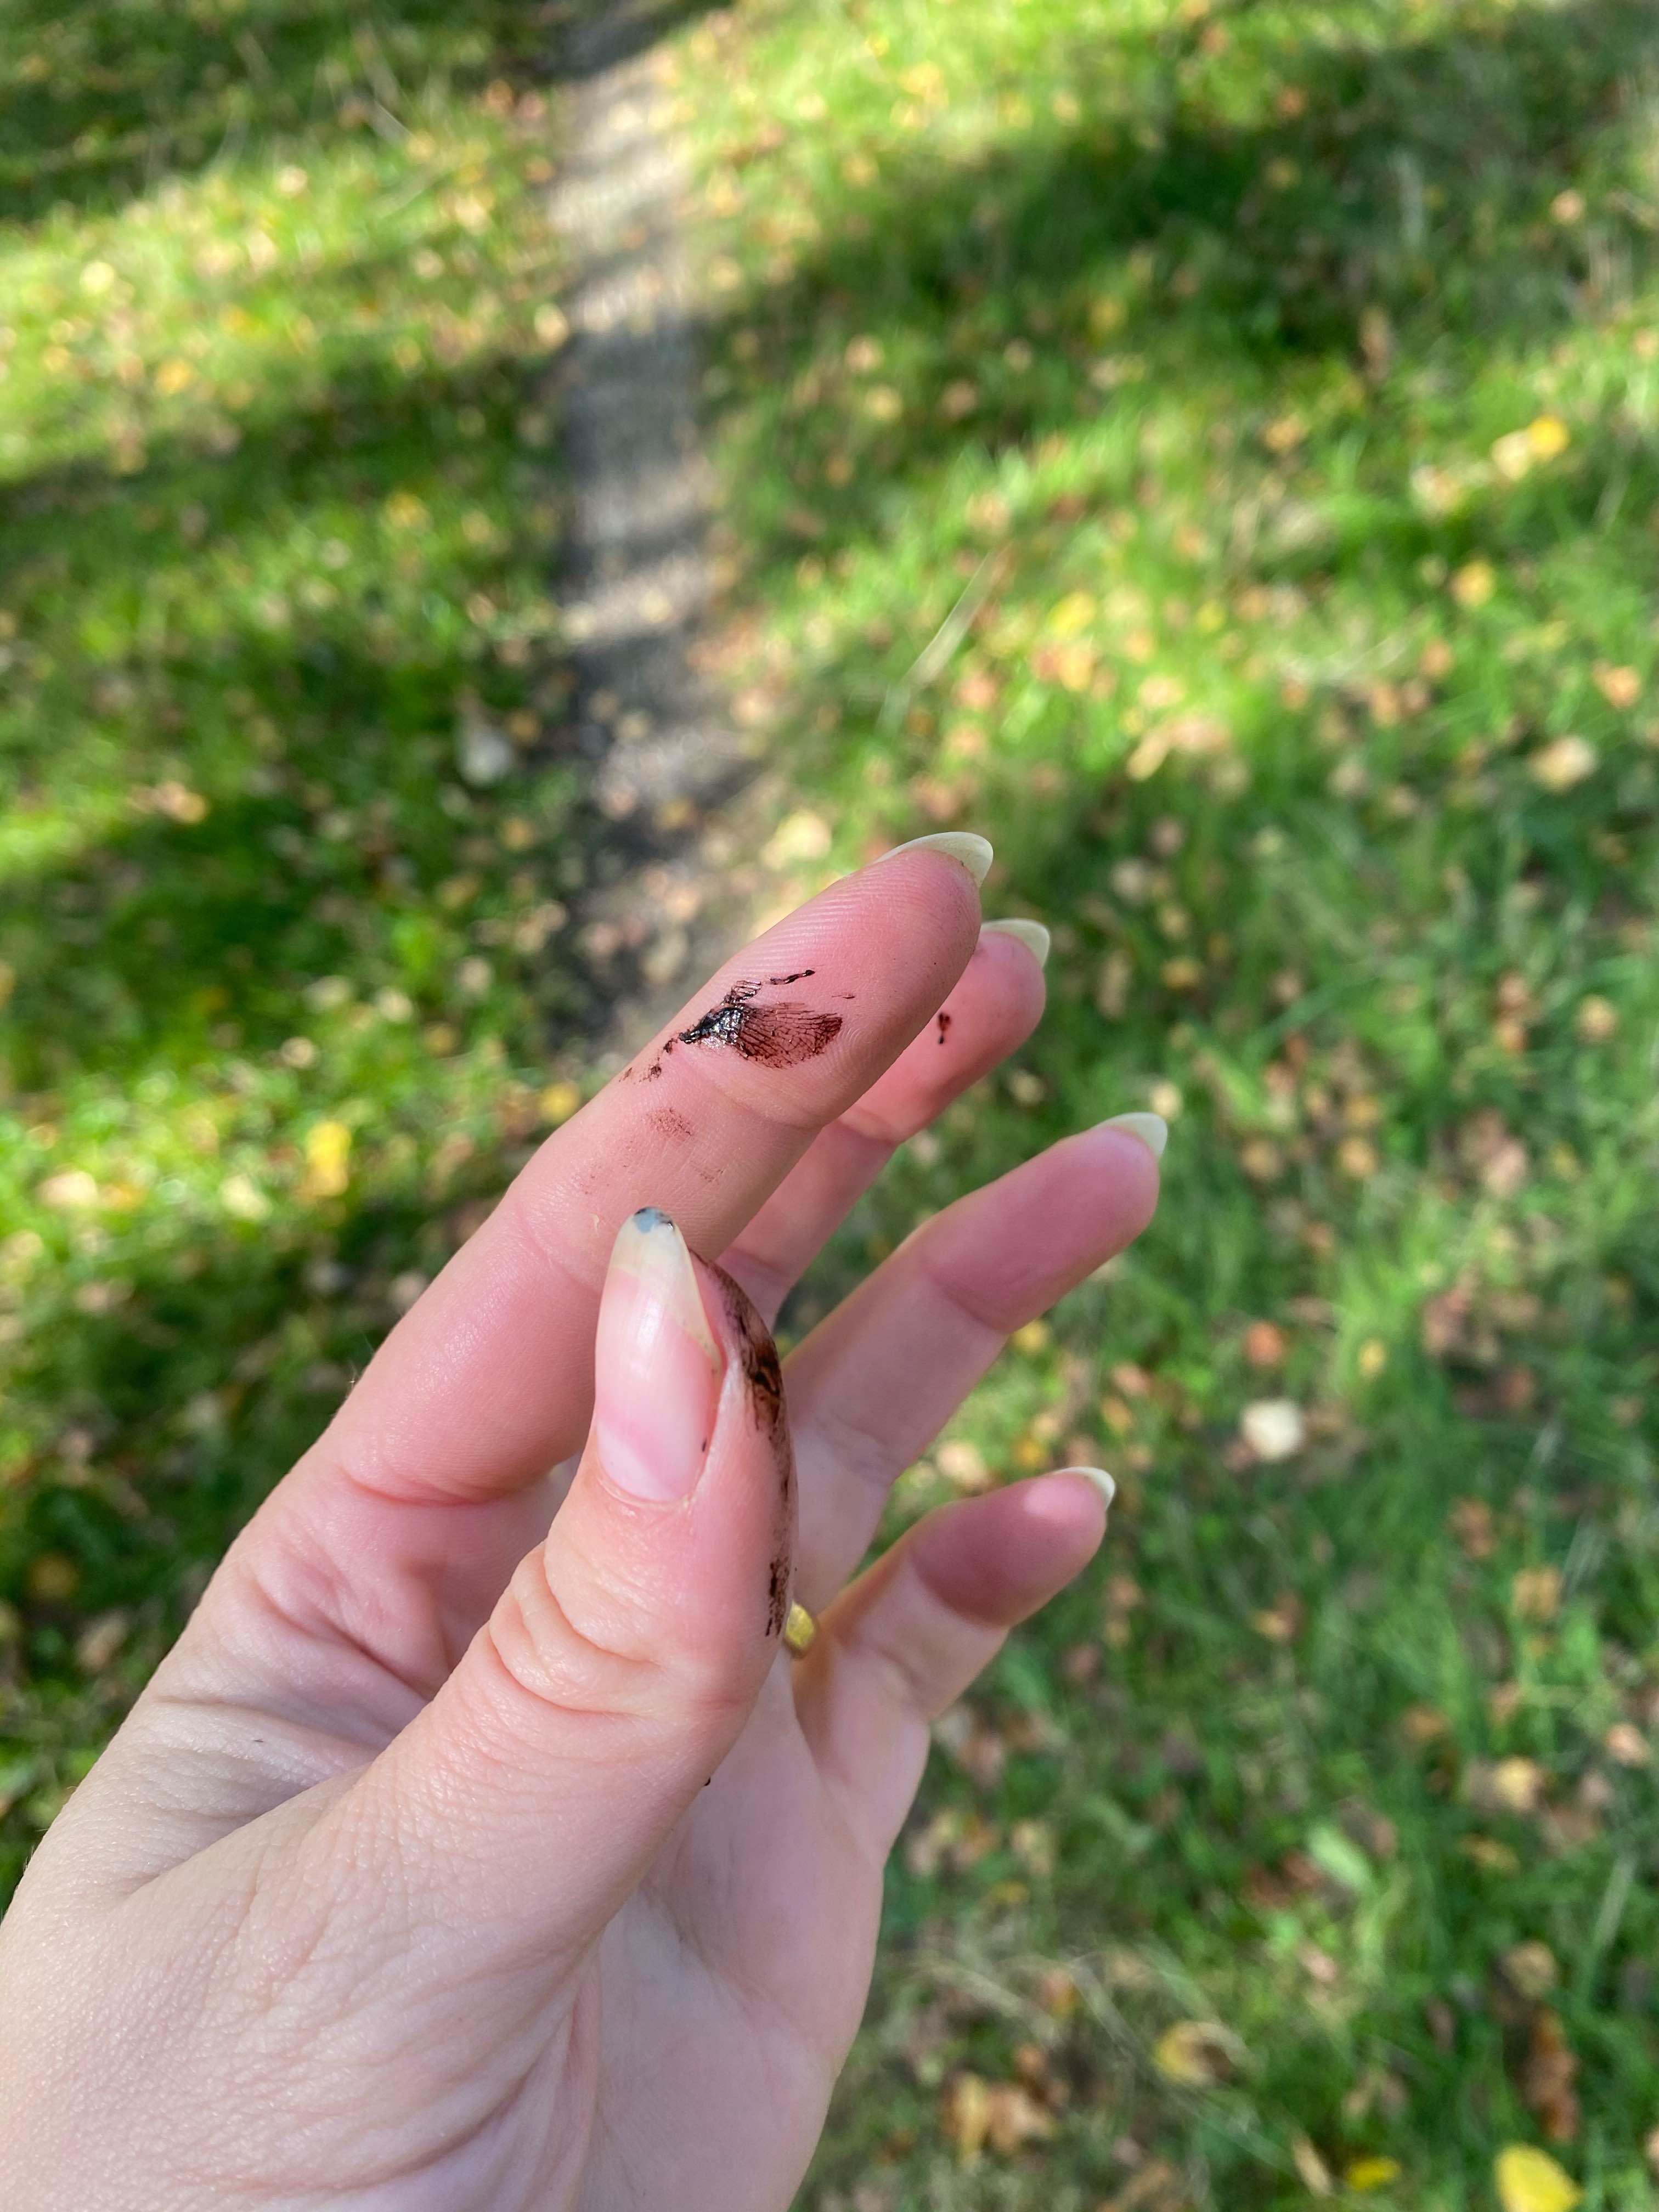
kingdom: Fungi
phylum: Basidiomycota
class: Agaricomycetes
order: Agaricales
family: Agaricaceae
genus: Coprinus
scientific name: Coprinus comatus
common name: stor parykhat
